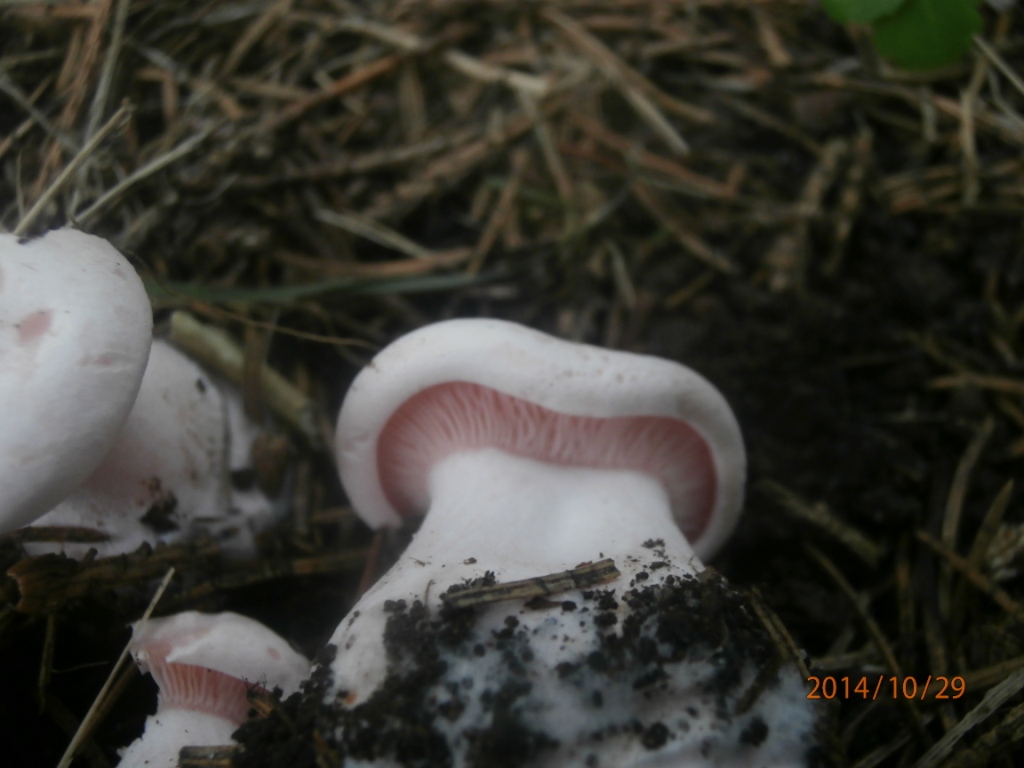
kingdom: Fungi
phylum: Basidiomycota
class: Agaricomycetes
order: Agaricales
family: Tricholomataceae
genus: Pseudoclitopilus
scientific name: Pseudoclitopilus rhodoleucus
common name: rosabladet tragtridderhat
